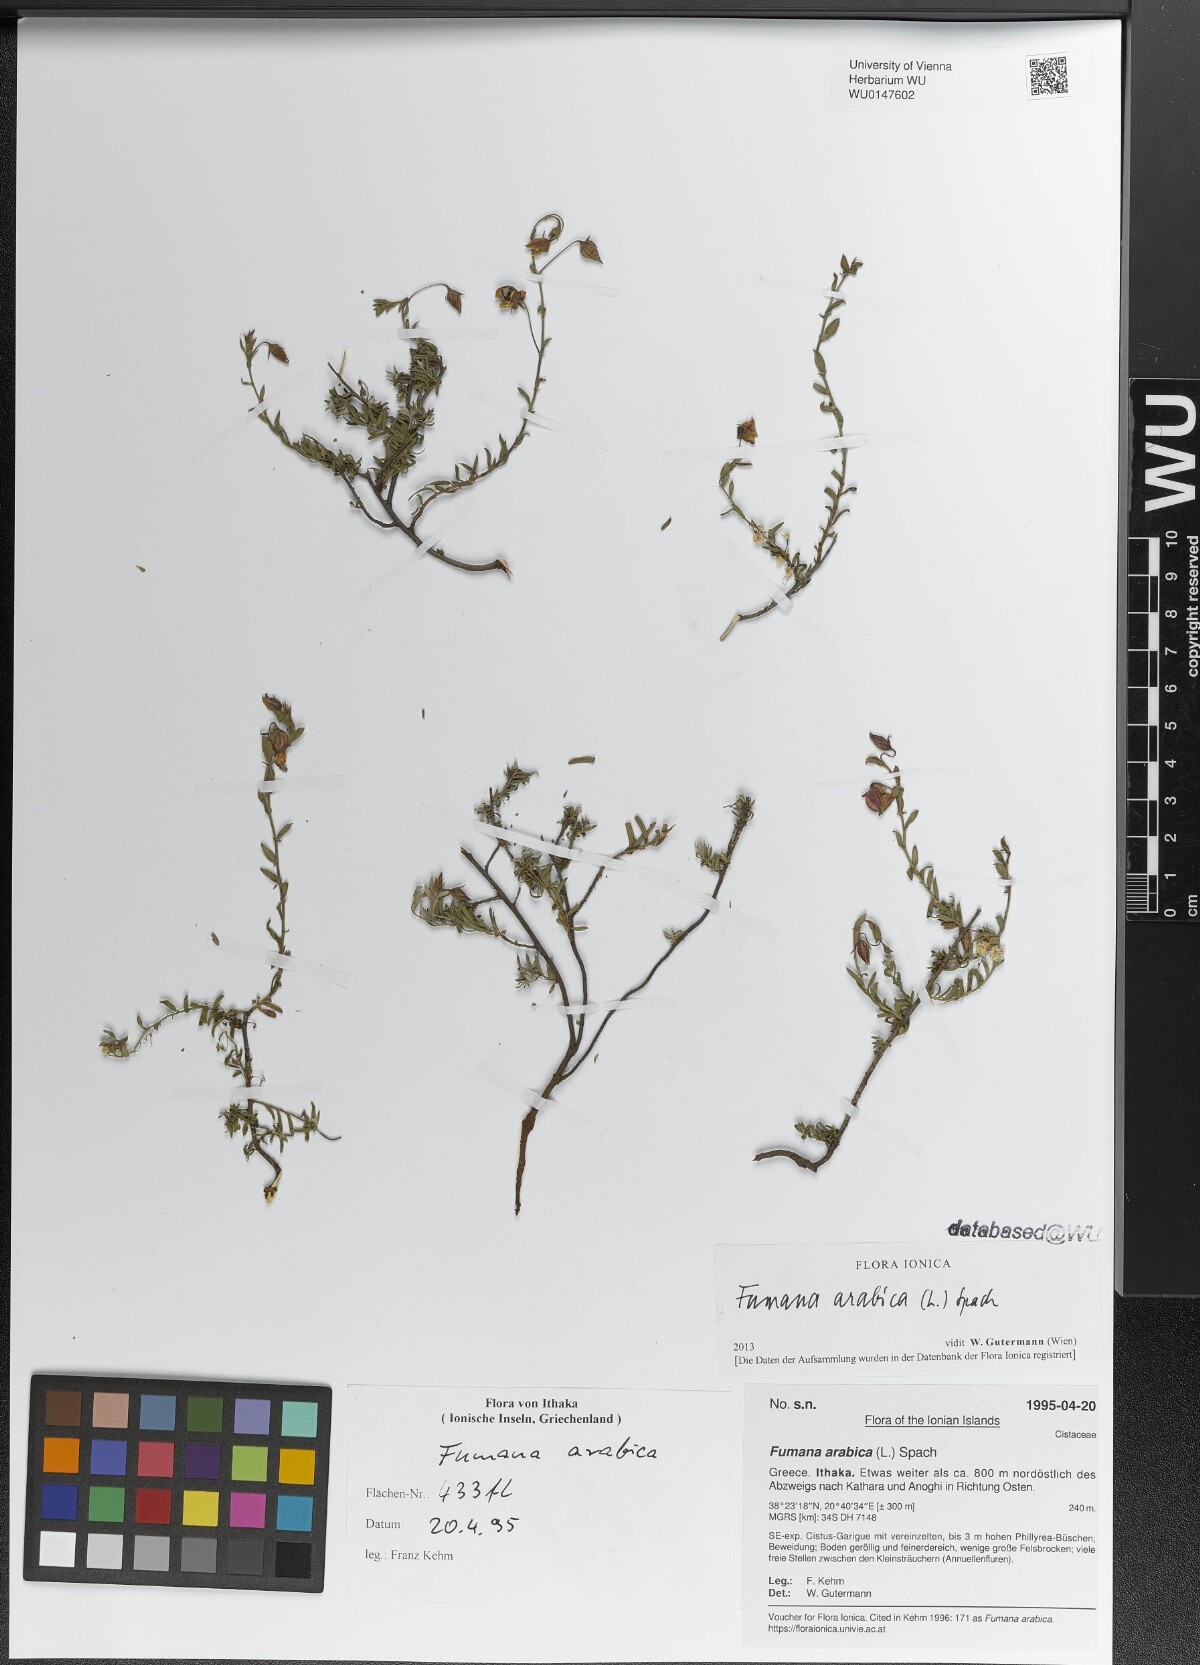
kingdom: Plantae
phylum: Tracheophyta
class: Magnoliopsida
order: Malvales
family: Cistaceae
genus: Fumana
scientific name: Fumana arabica
